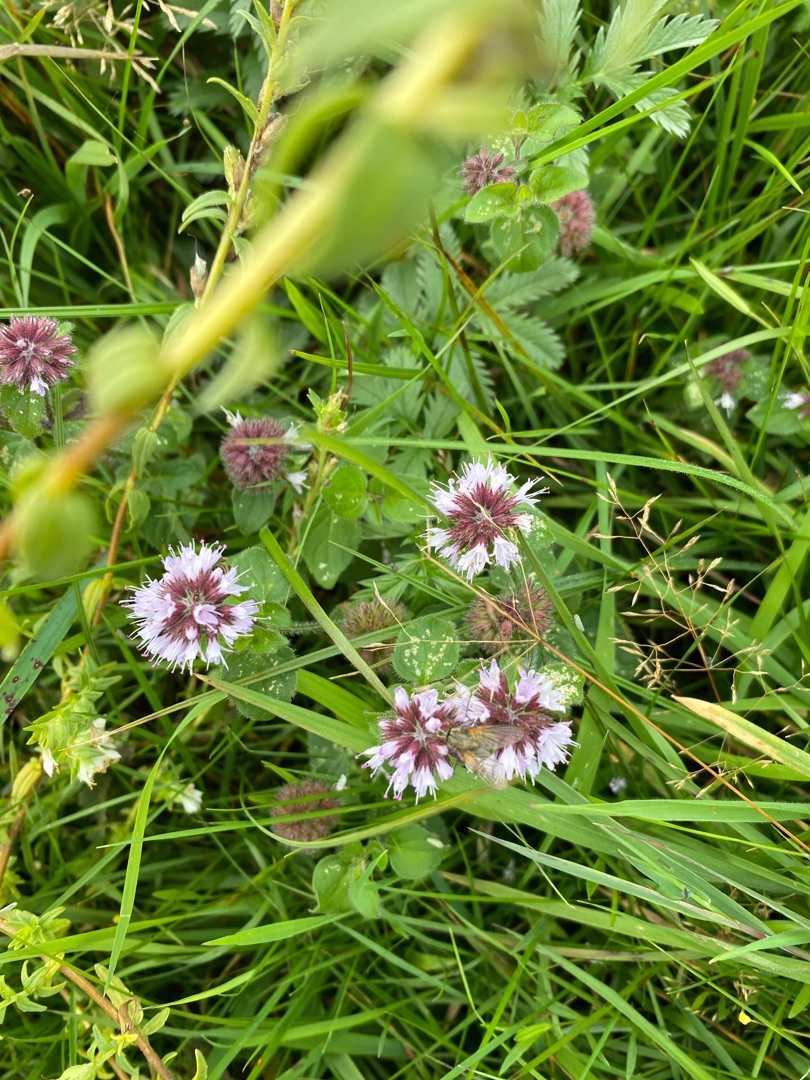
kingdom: Plantae
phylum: Tracheophyta
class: Magnoliopsida
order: Lamiales
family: Lamiaceae
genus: Mentha
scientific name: Mentha aquatica
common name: Vand-mynte
